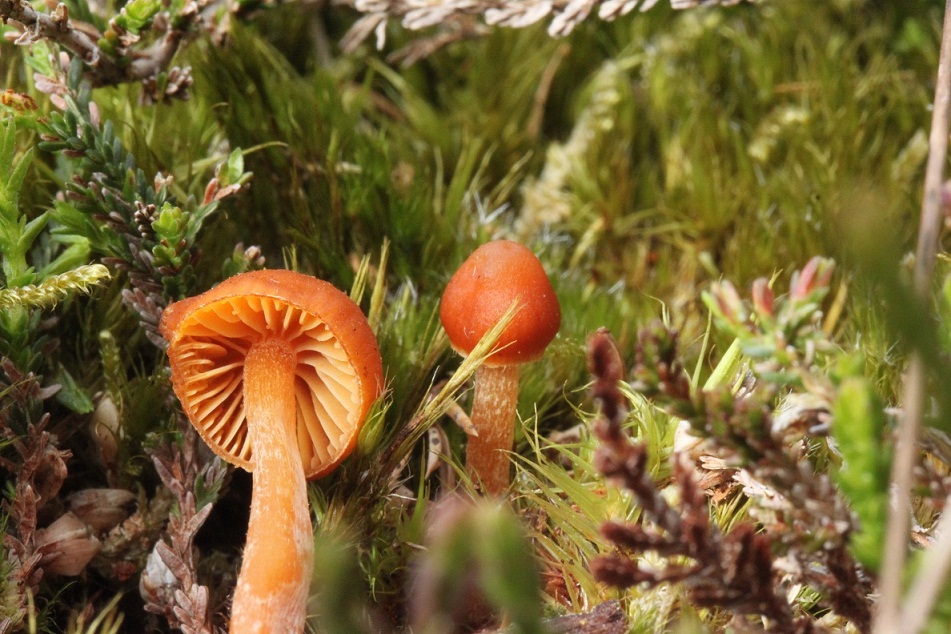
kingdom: Fungi
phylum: Basidiomycota
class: Agaricomycetes
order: Agaricales
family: Hymenogastraceae
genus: Galerina
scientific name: Galerina calyptrata
